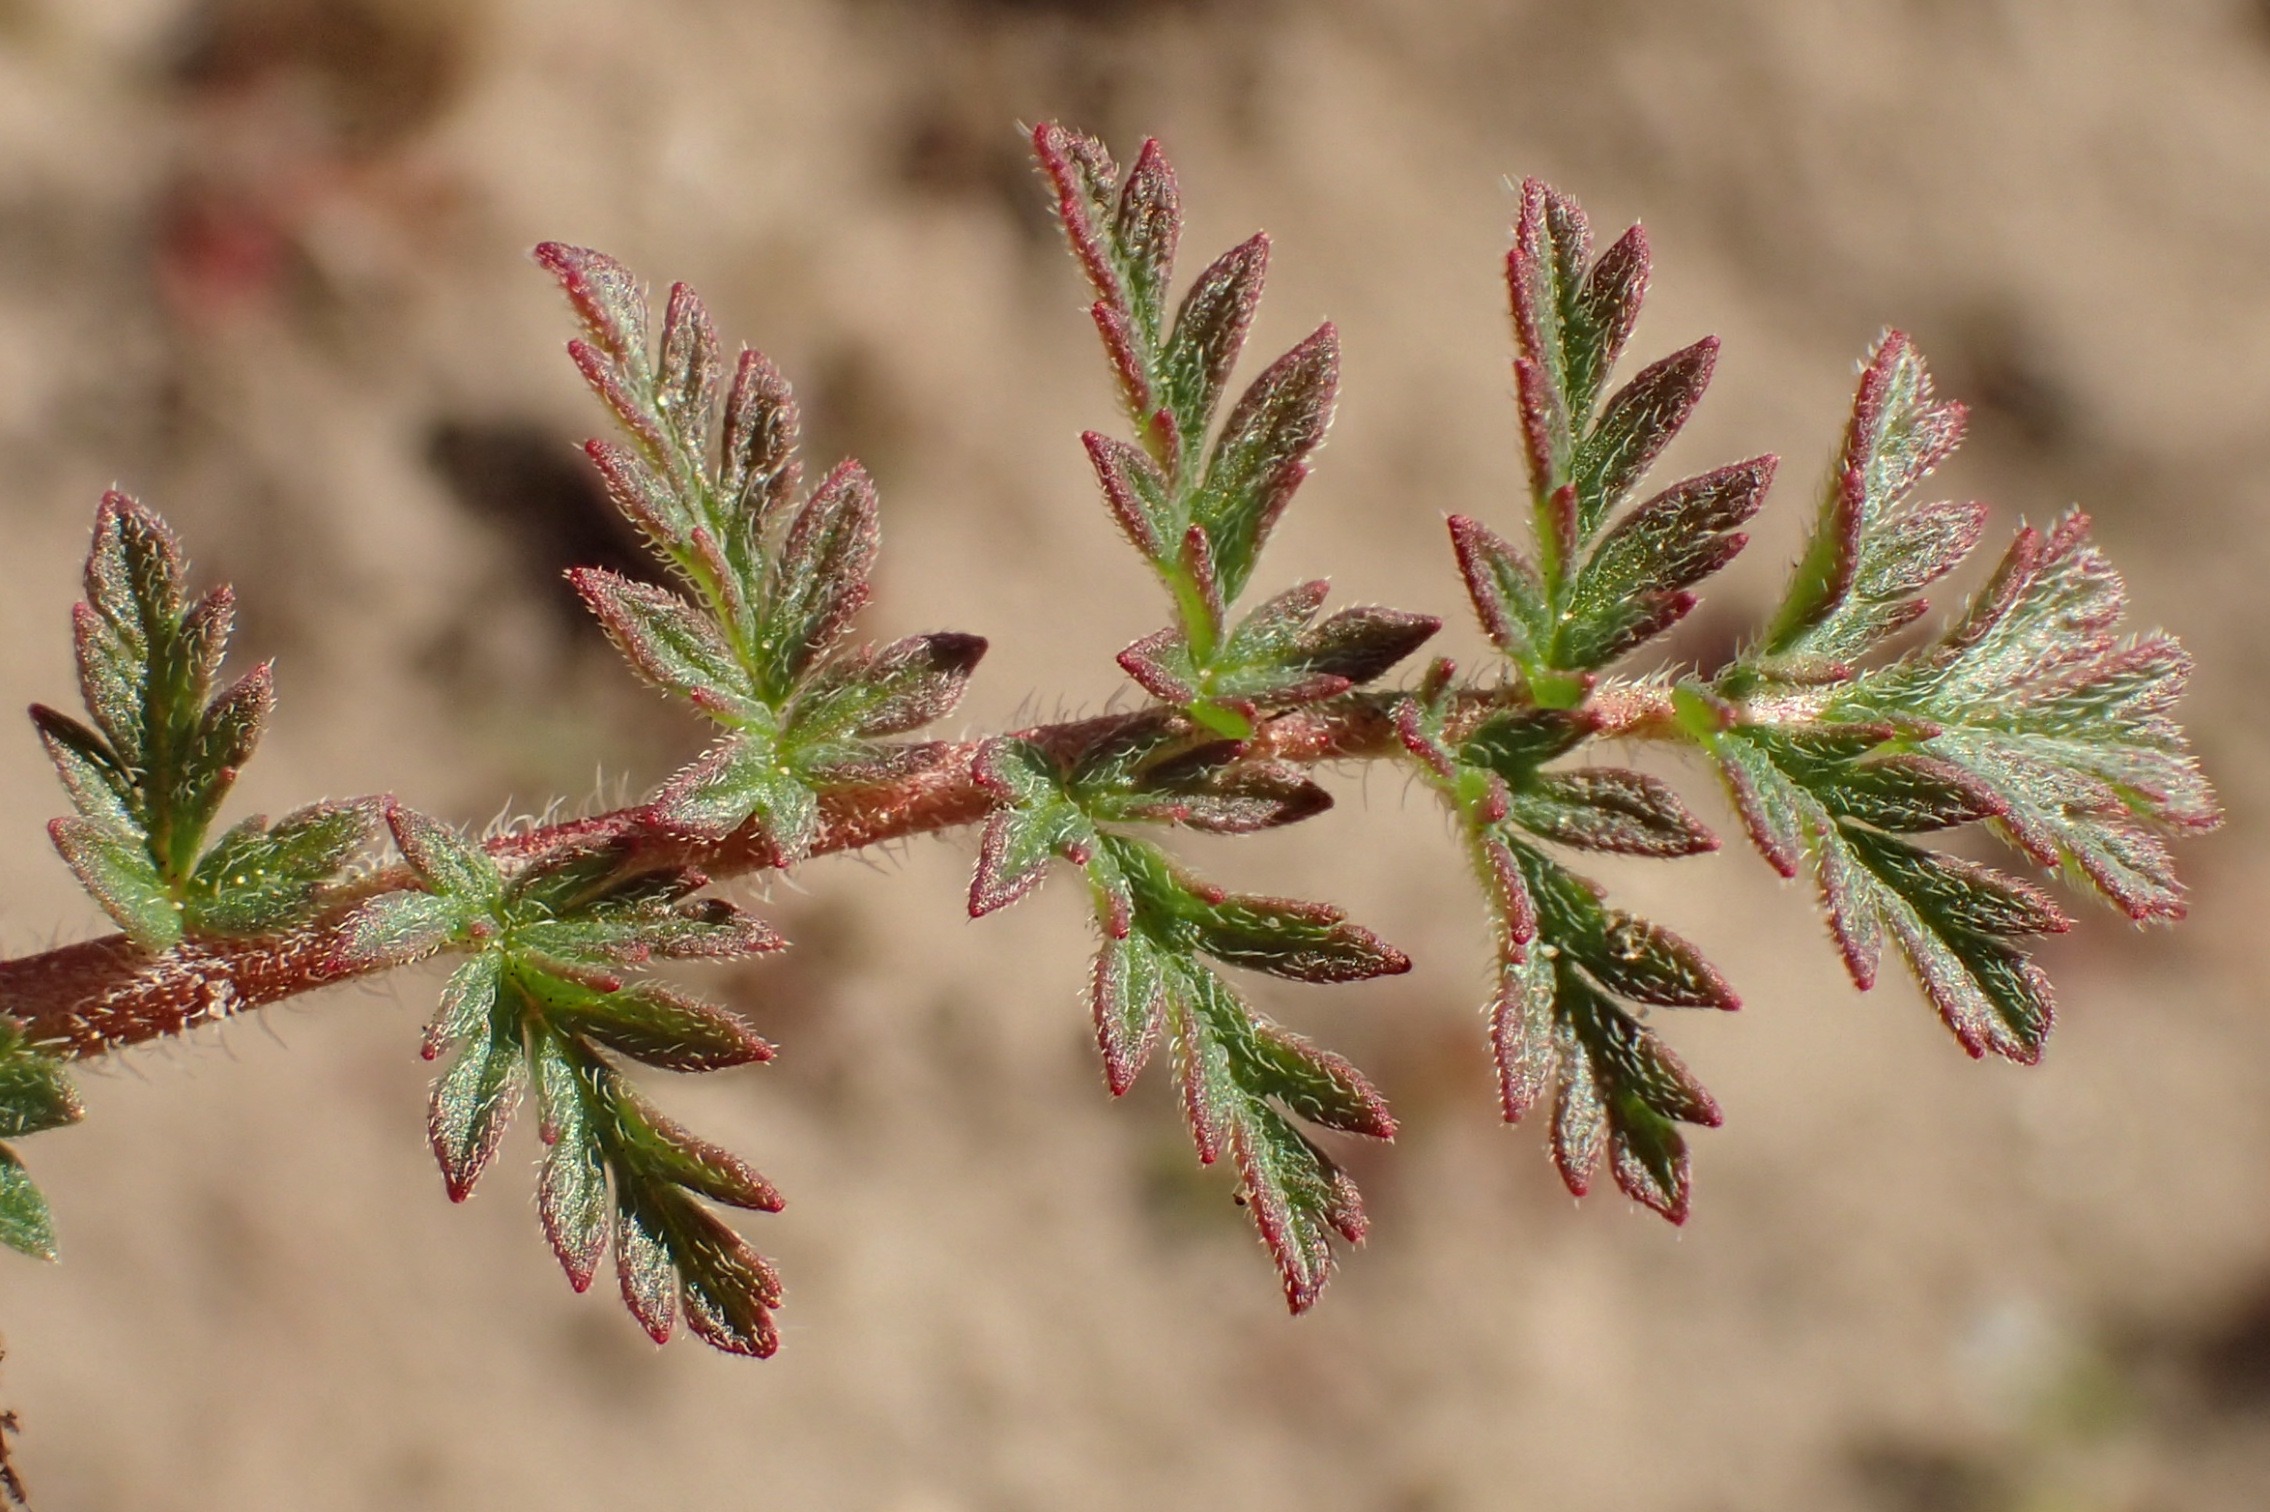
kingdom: Plantae
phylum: Tracheophyta
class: Magnoliopsida
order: Geraniales
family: Geraniaceae
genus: Erodium
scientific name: Erodium cicutarium
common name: Hejrenæb
